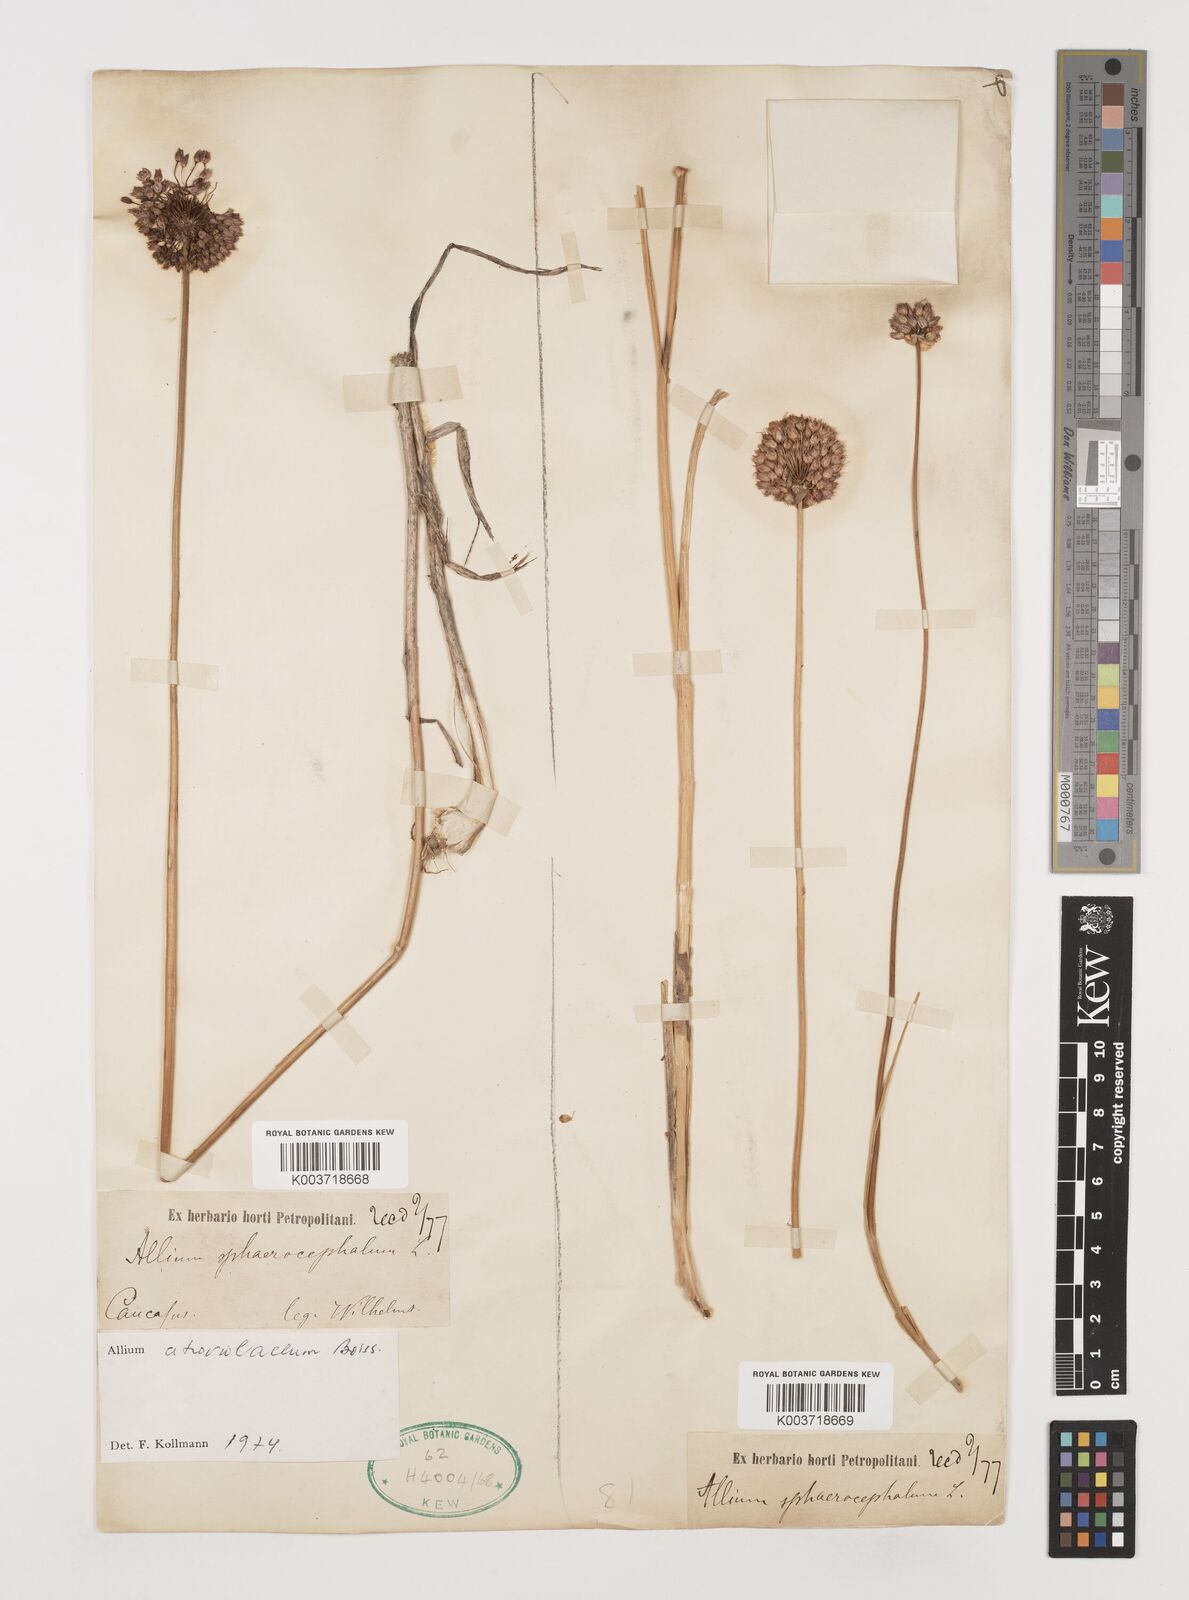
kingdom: Plantae
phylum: Tracheophyta
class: Liliopsida
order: Asparagales
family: Amaryllidaceae
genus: Allium
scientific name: Allium atroviolaceum
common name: Broadleaf wild leek
